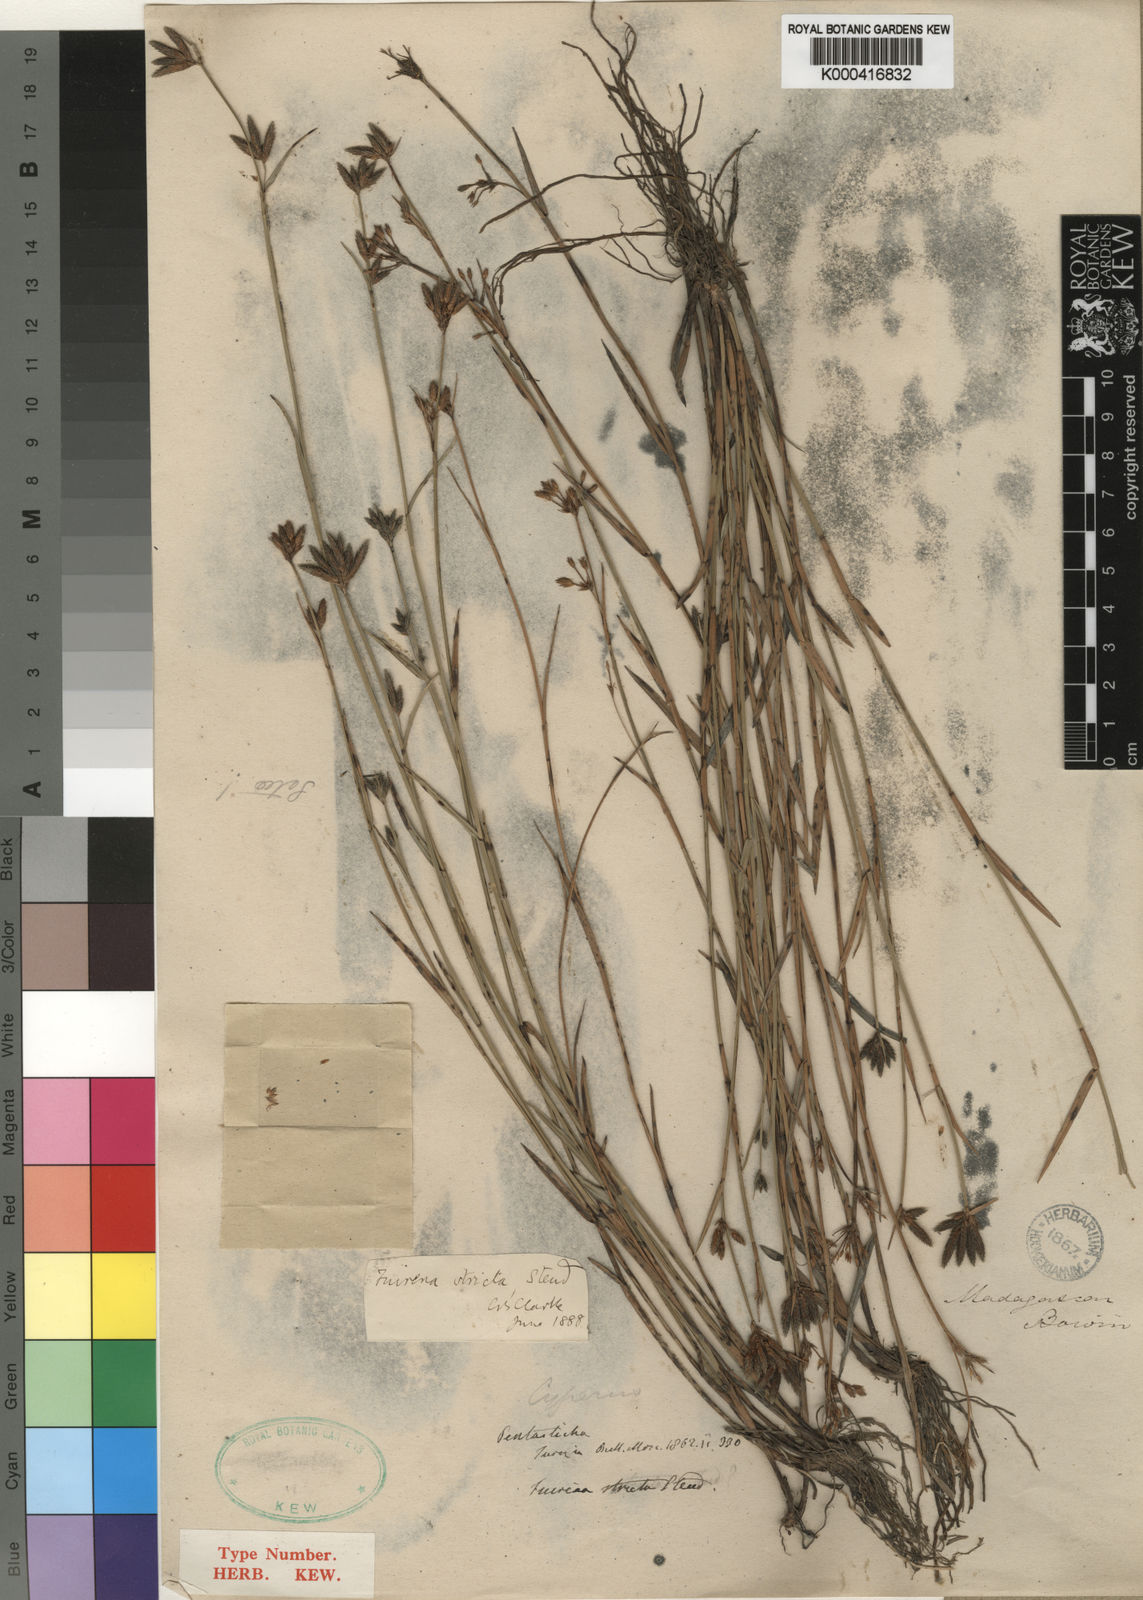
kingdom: Plantae
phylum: Tracheophyta
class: Liliopsida
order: Poales
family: Cyperaceae
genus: Fuirena
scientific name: Fuirena stricta
